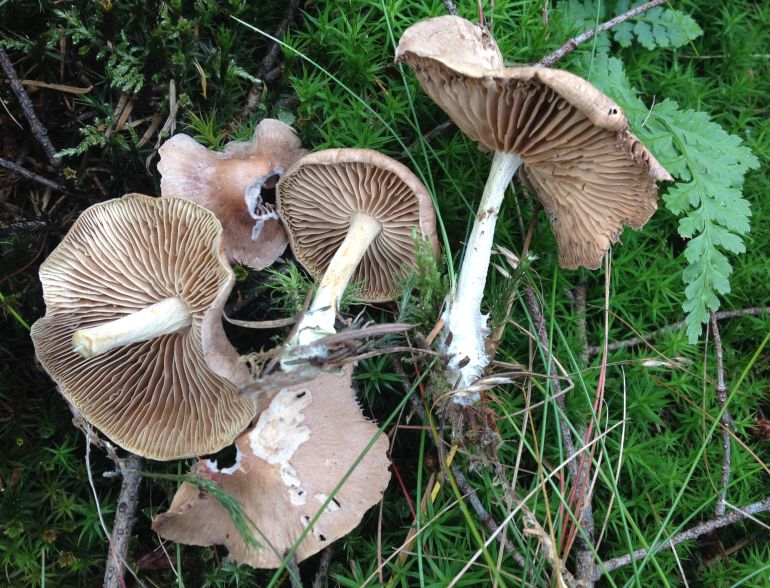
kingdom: Fungi
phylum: Basidiomycota
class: Agaricomycetes
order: Agaricales
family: Omphalotaceae
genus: Collybiopsis
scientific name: Collybiopsis peronata
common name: bestøvlet fladhat
